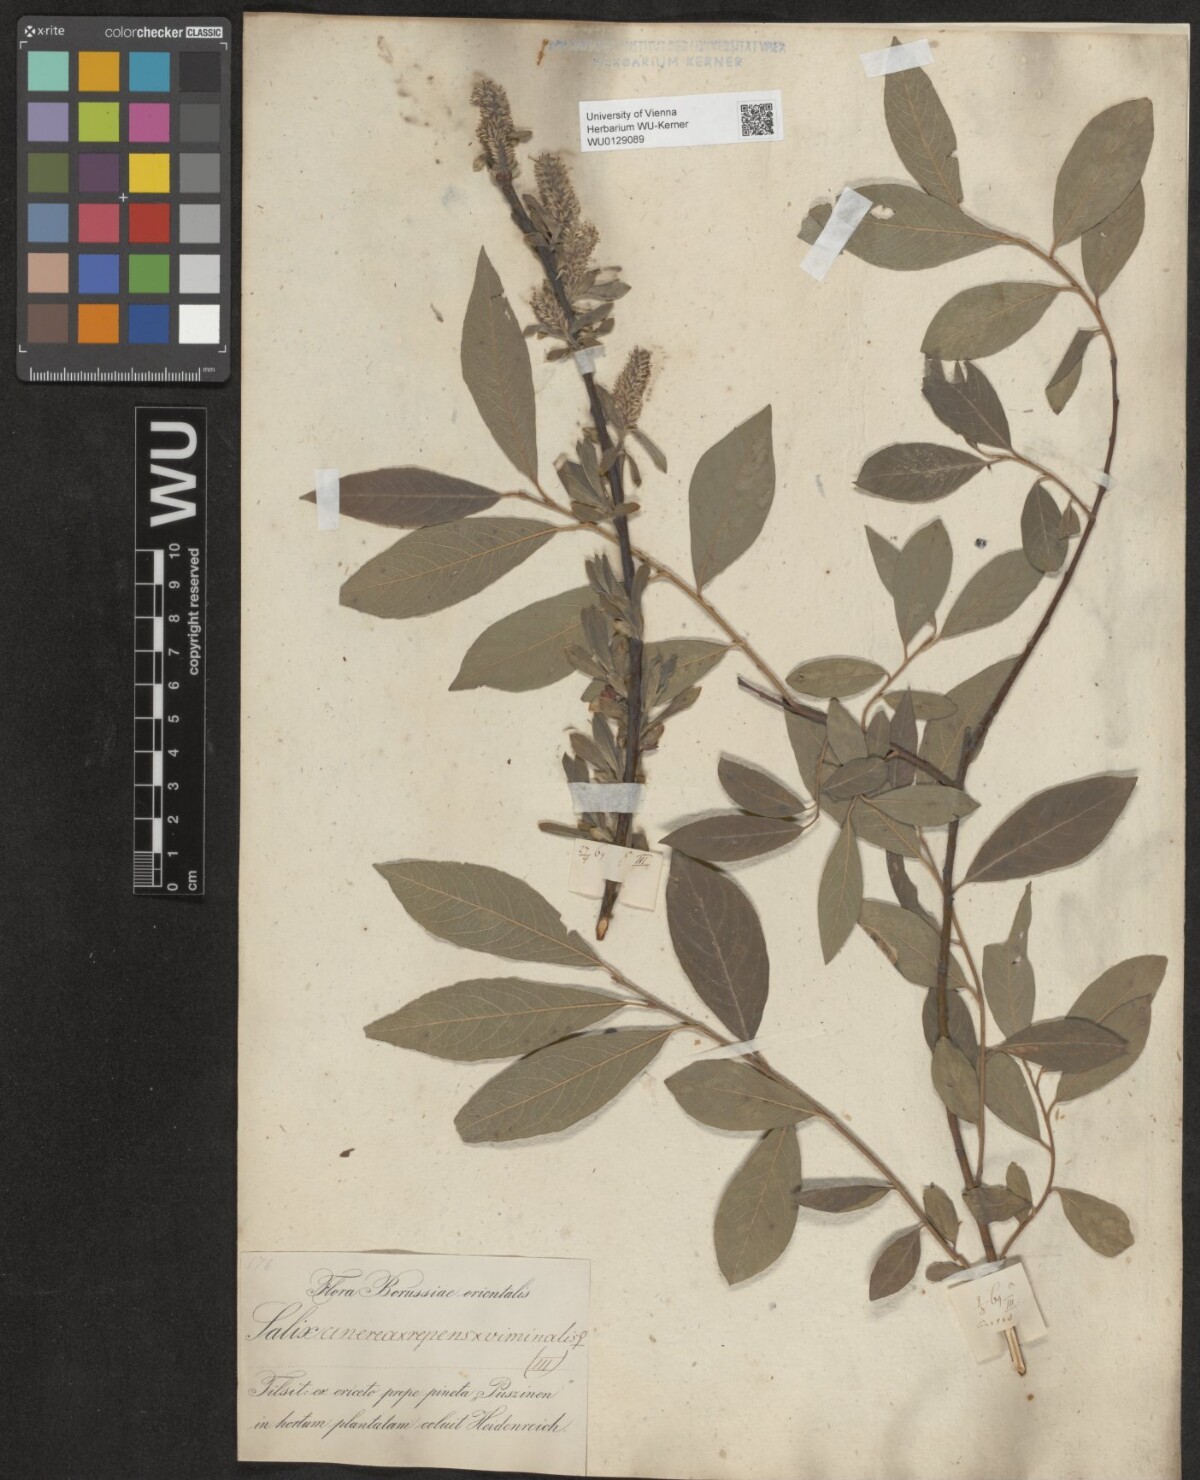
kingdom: Plantae
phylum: Tracheophyta
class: Magnoliopsida
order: Malpighiales
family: Salicaceae
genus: Salix
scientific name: Salix
